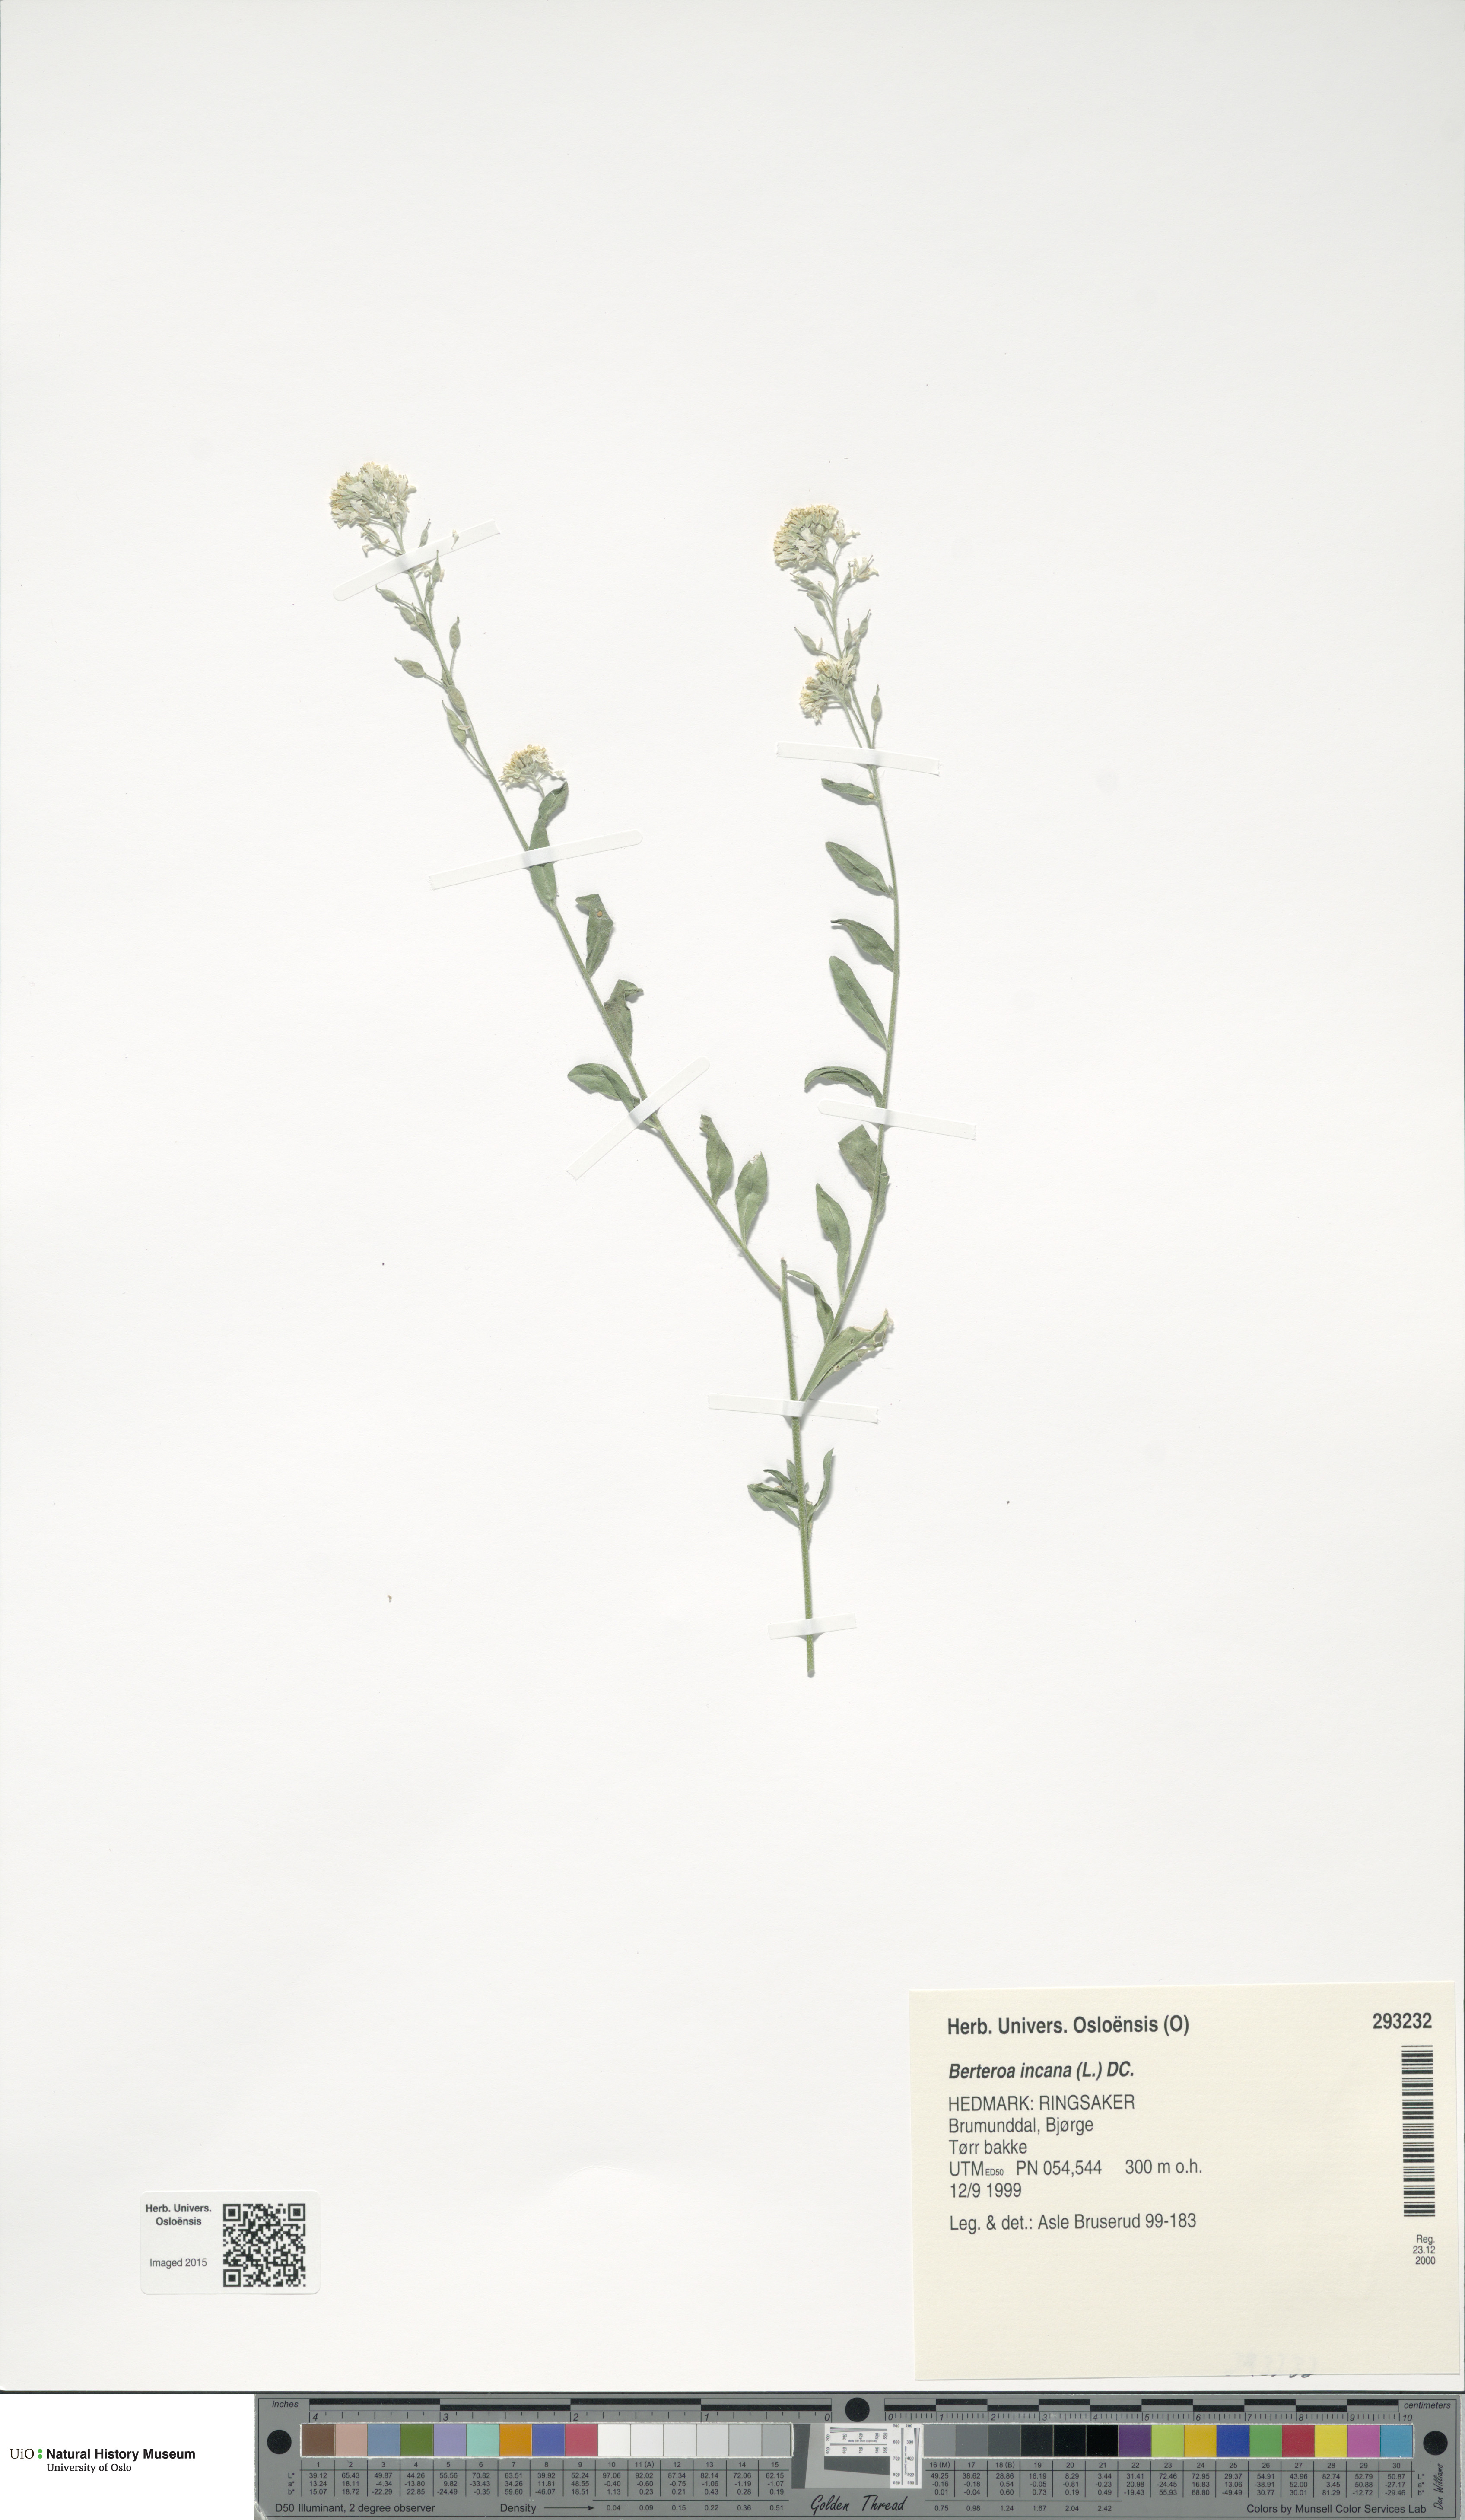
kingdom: Plantae
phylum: Tracheophyta
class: Magnoliopsida
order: Brassicales
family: Brassicaceae
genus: Berteroa
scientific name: Berteroa incana
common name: Hoary alison
